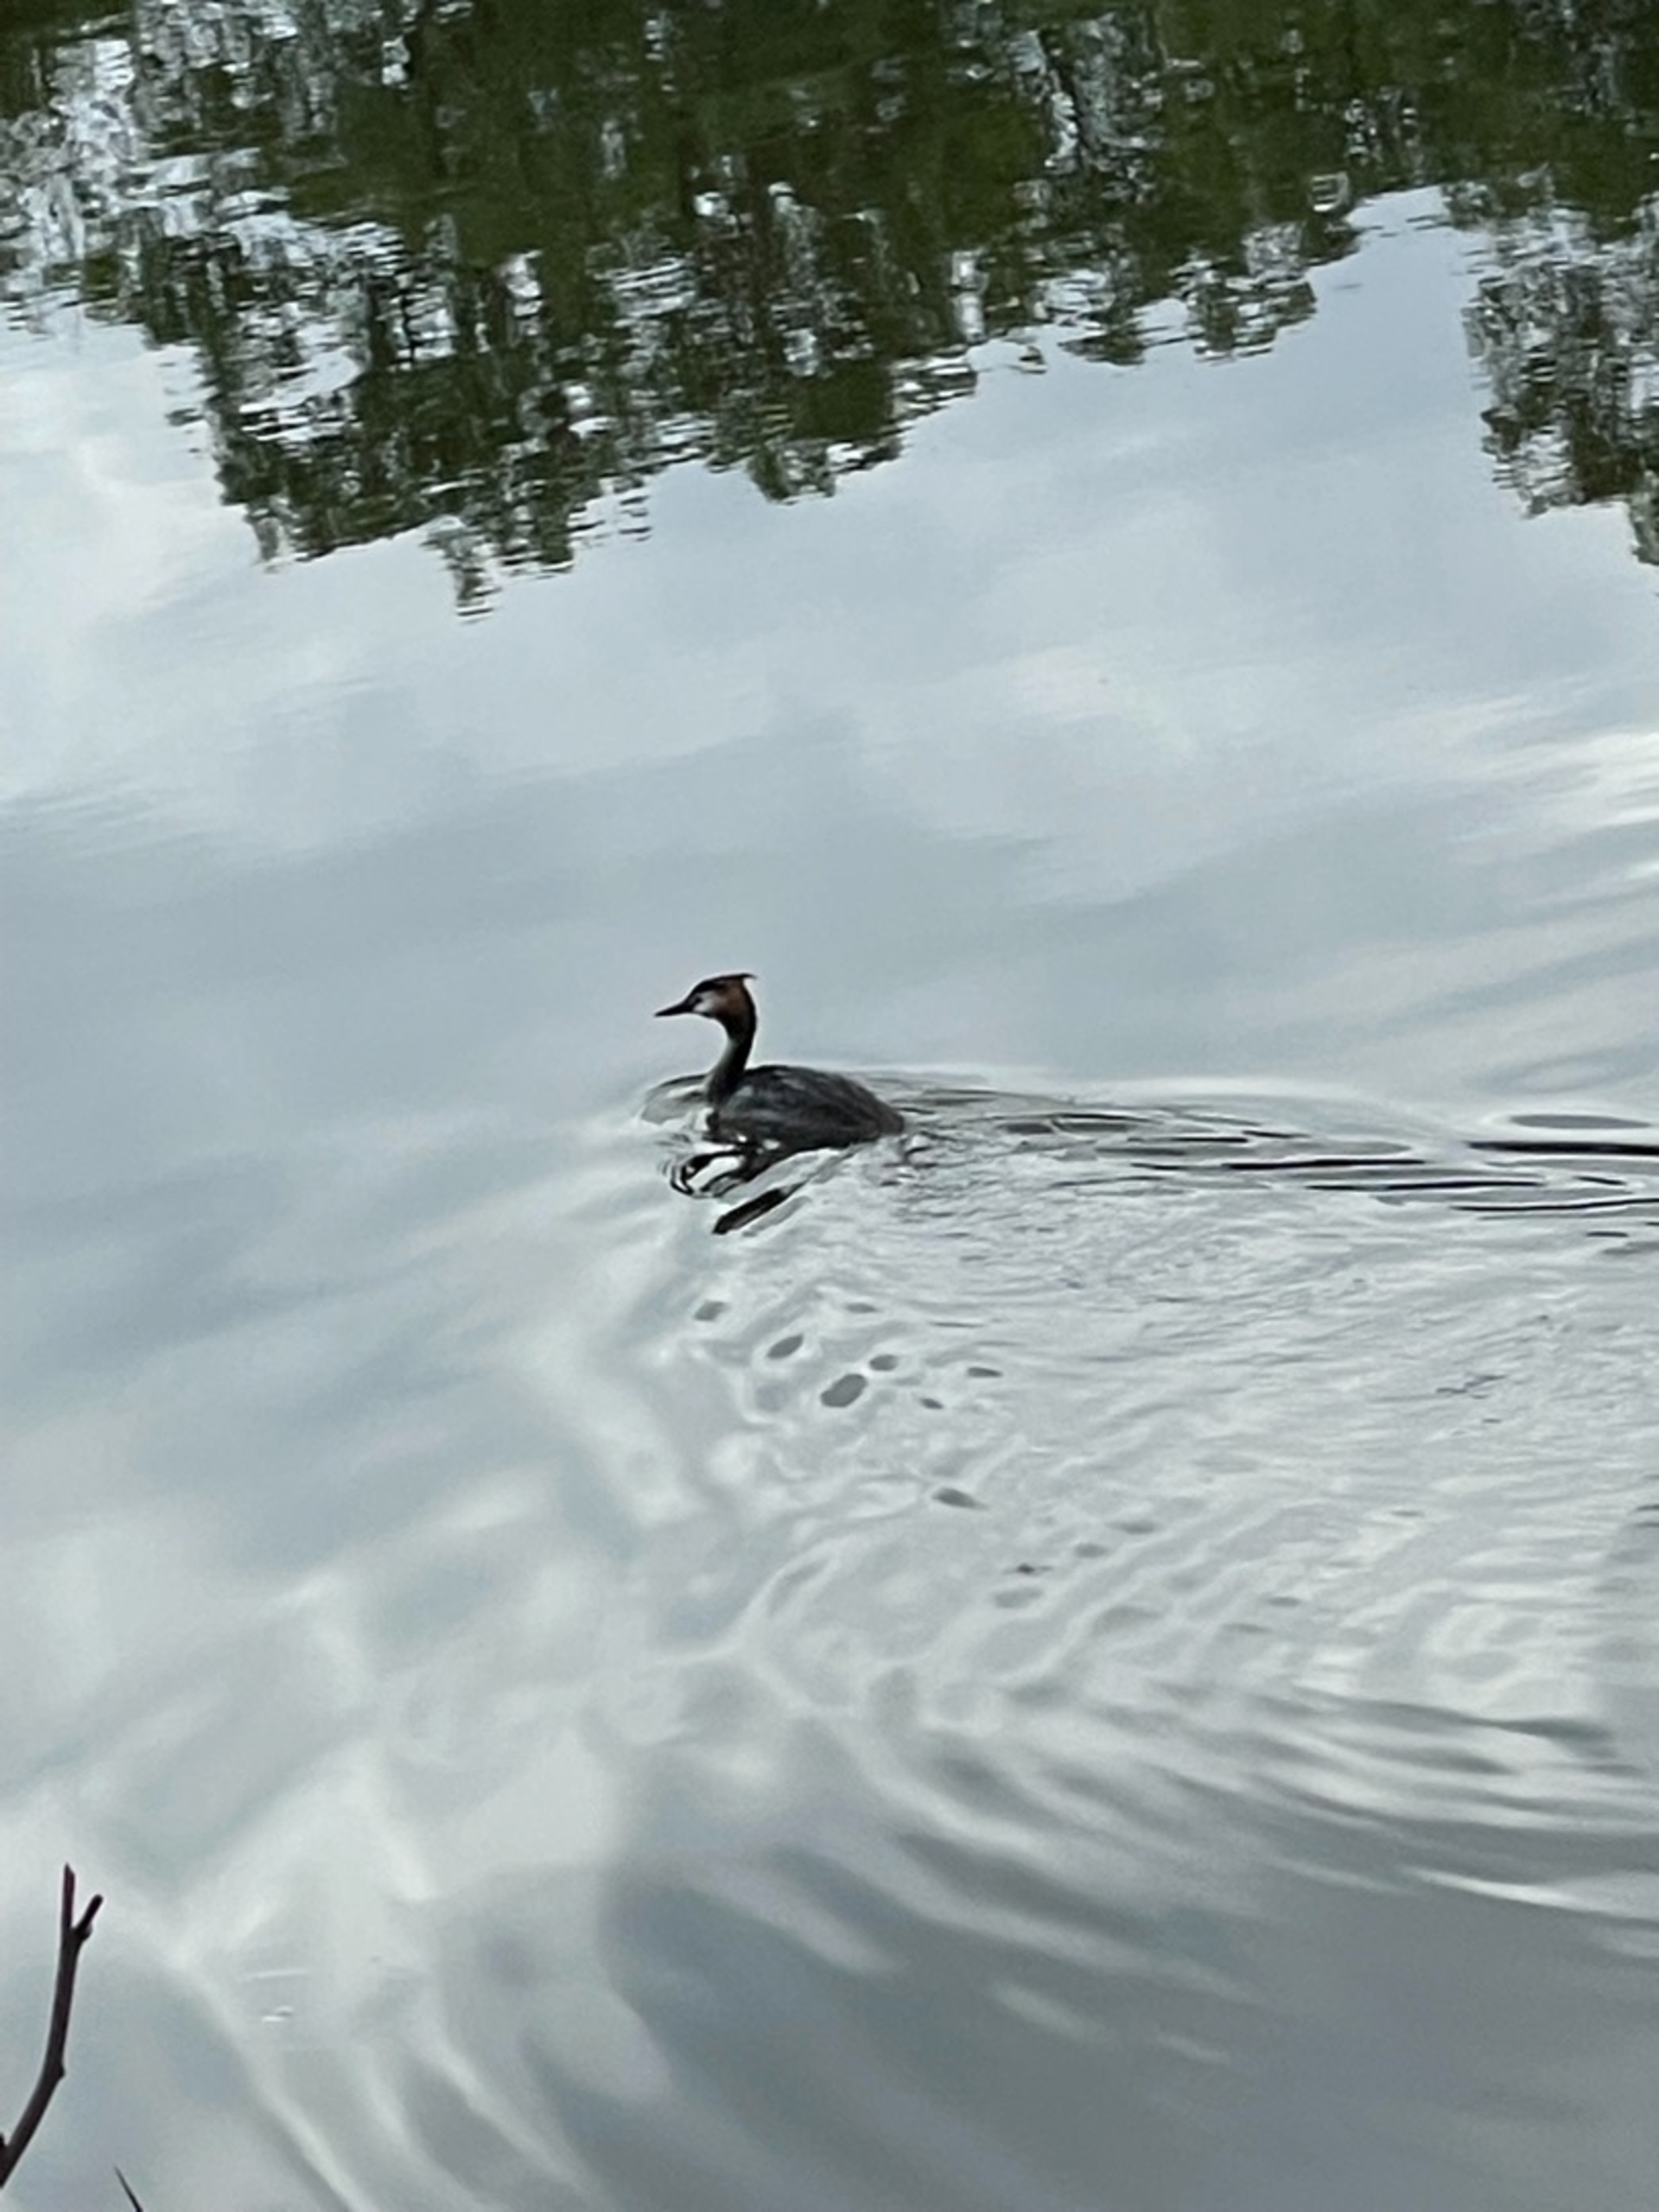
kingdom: Animalia
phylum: Chordata
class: Aves
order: Podicipediformes
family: Podicipedidae
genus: Podiceps
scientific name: Podiceps cristatus
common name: Toppet lappedykker
